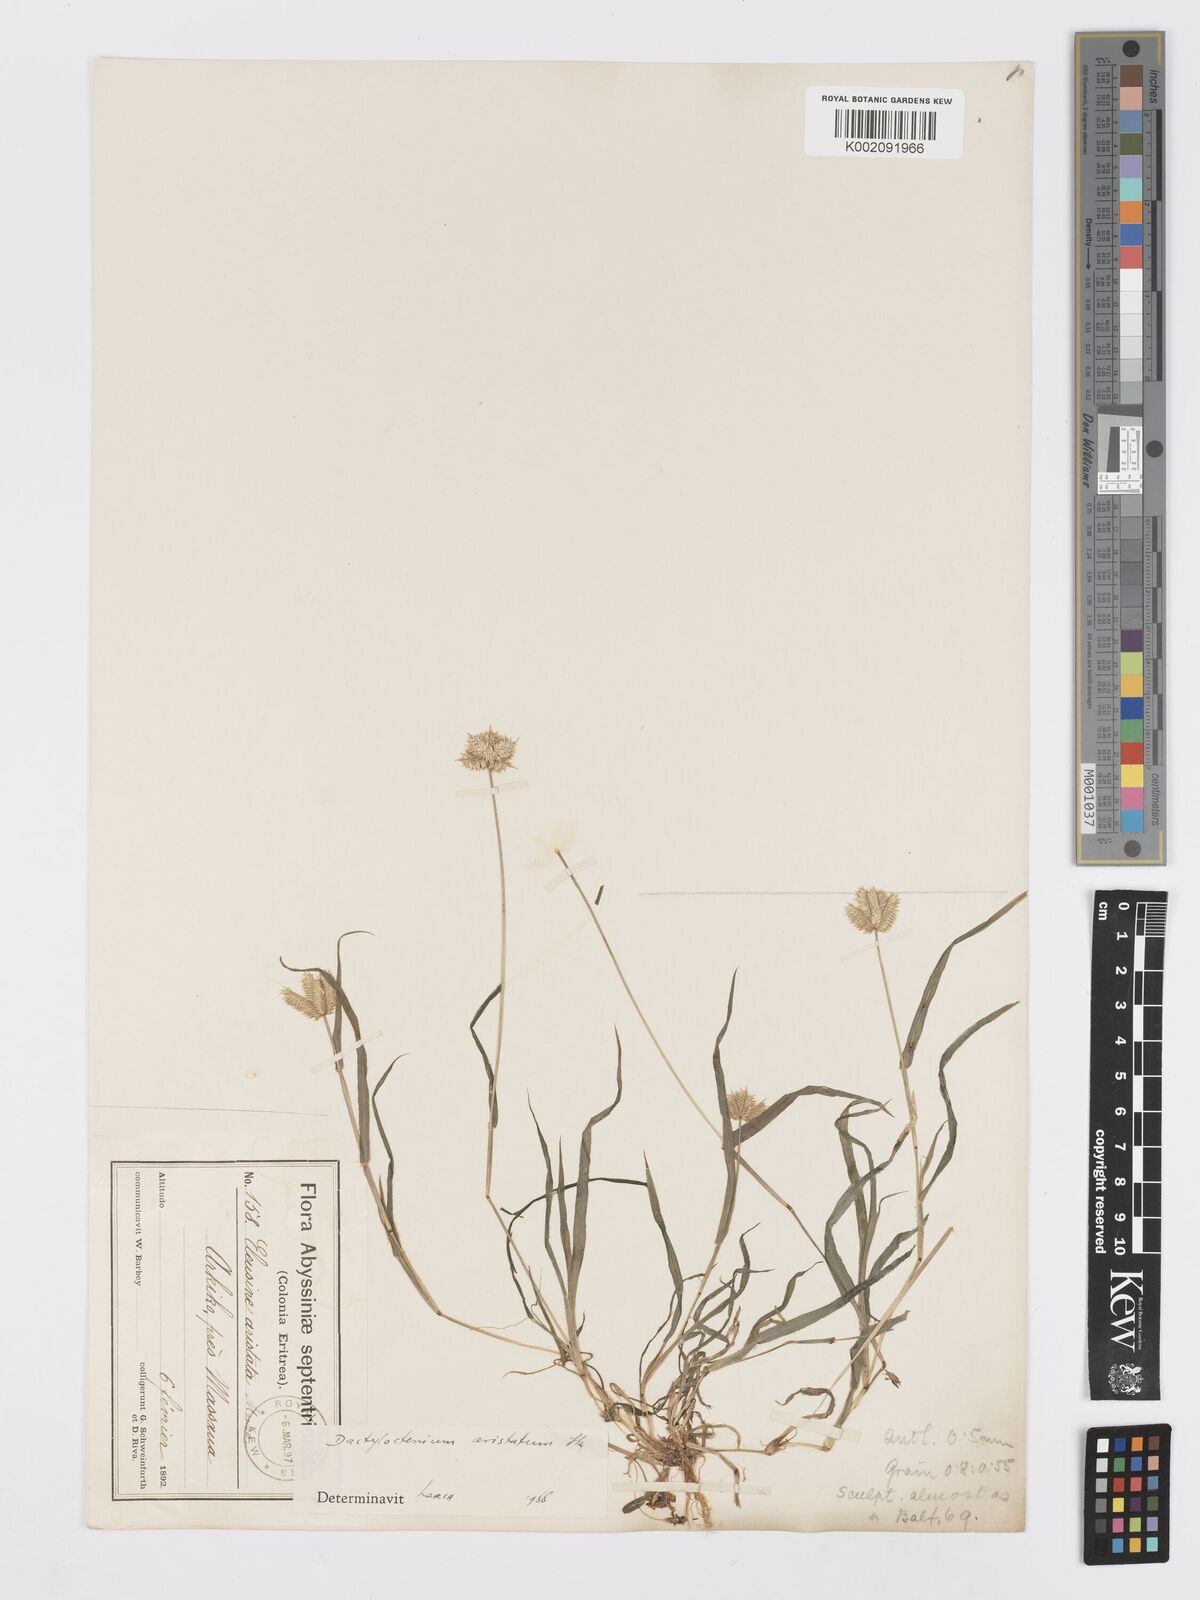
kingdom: Plantae
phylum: Tracheophyta
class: Liliopsida
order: Poales
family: Poaceae
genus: Dactyloctenium
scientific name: Dactyloctenium aristatum
